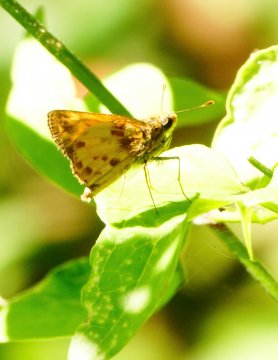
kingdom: Animalia
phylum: Arthropoda
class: Insecta
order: Lepidoptera
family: Hesperiidae
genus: Lon
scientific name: Lon zabulon
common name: Zabulon Skipper
